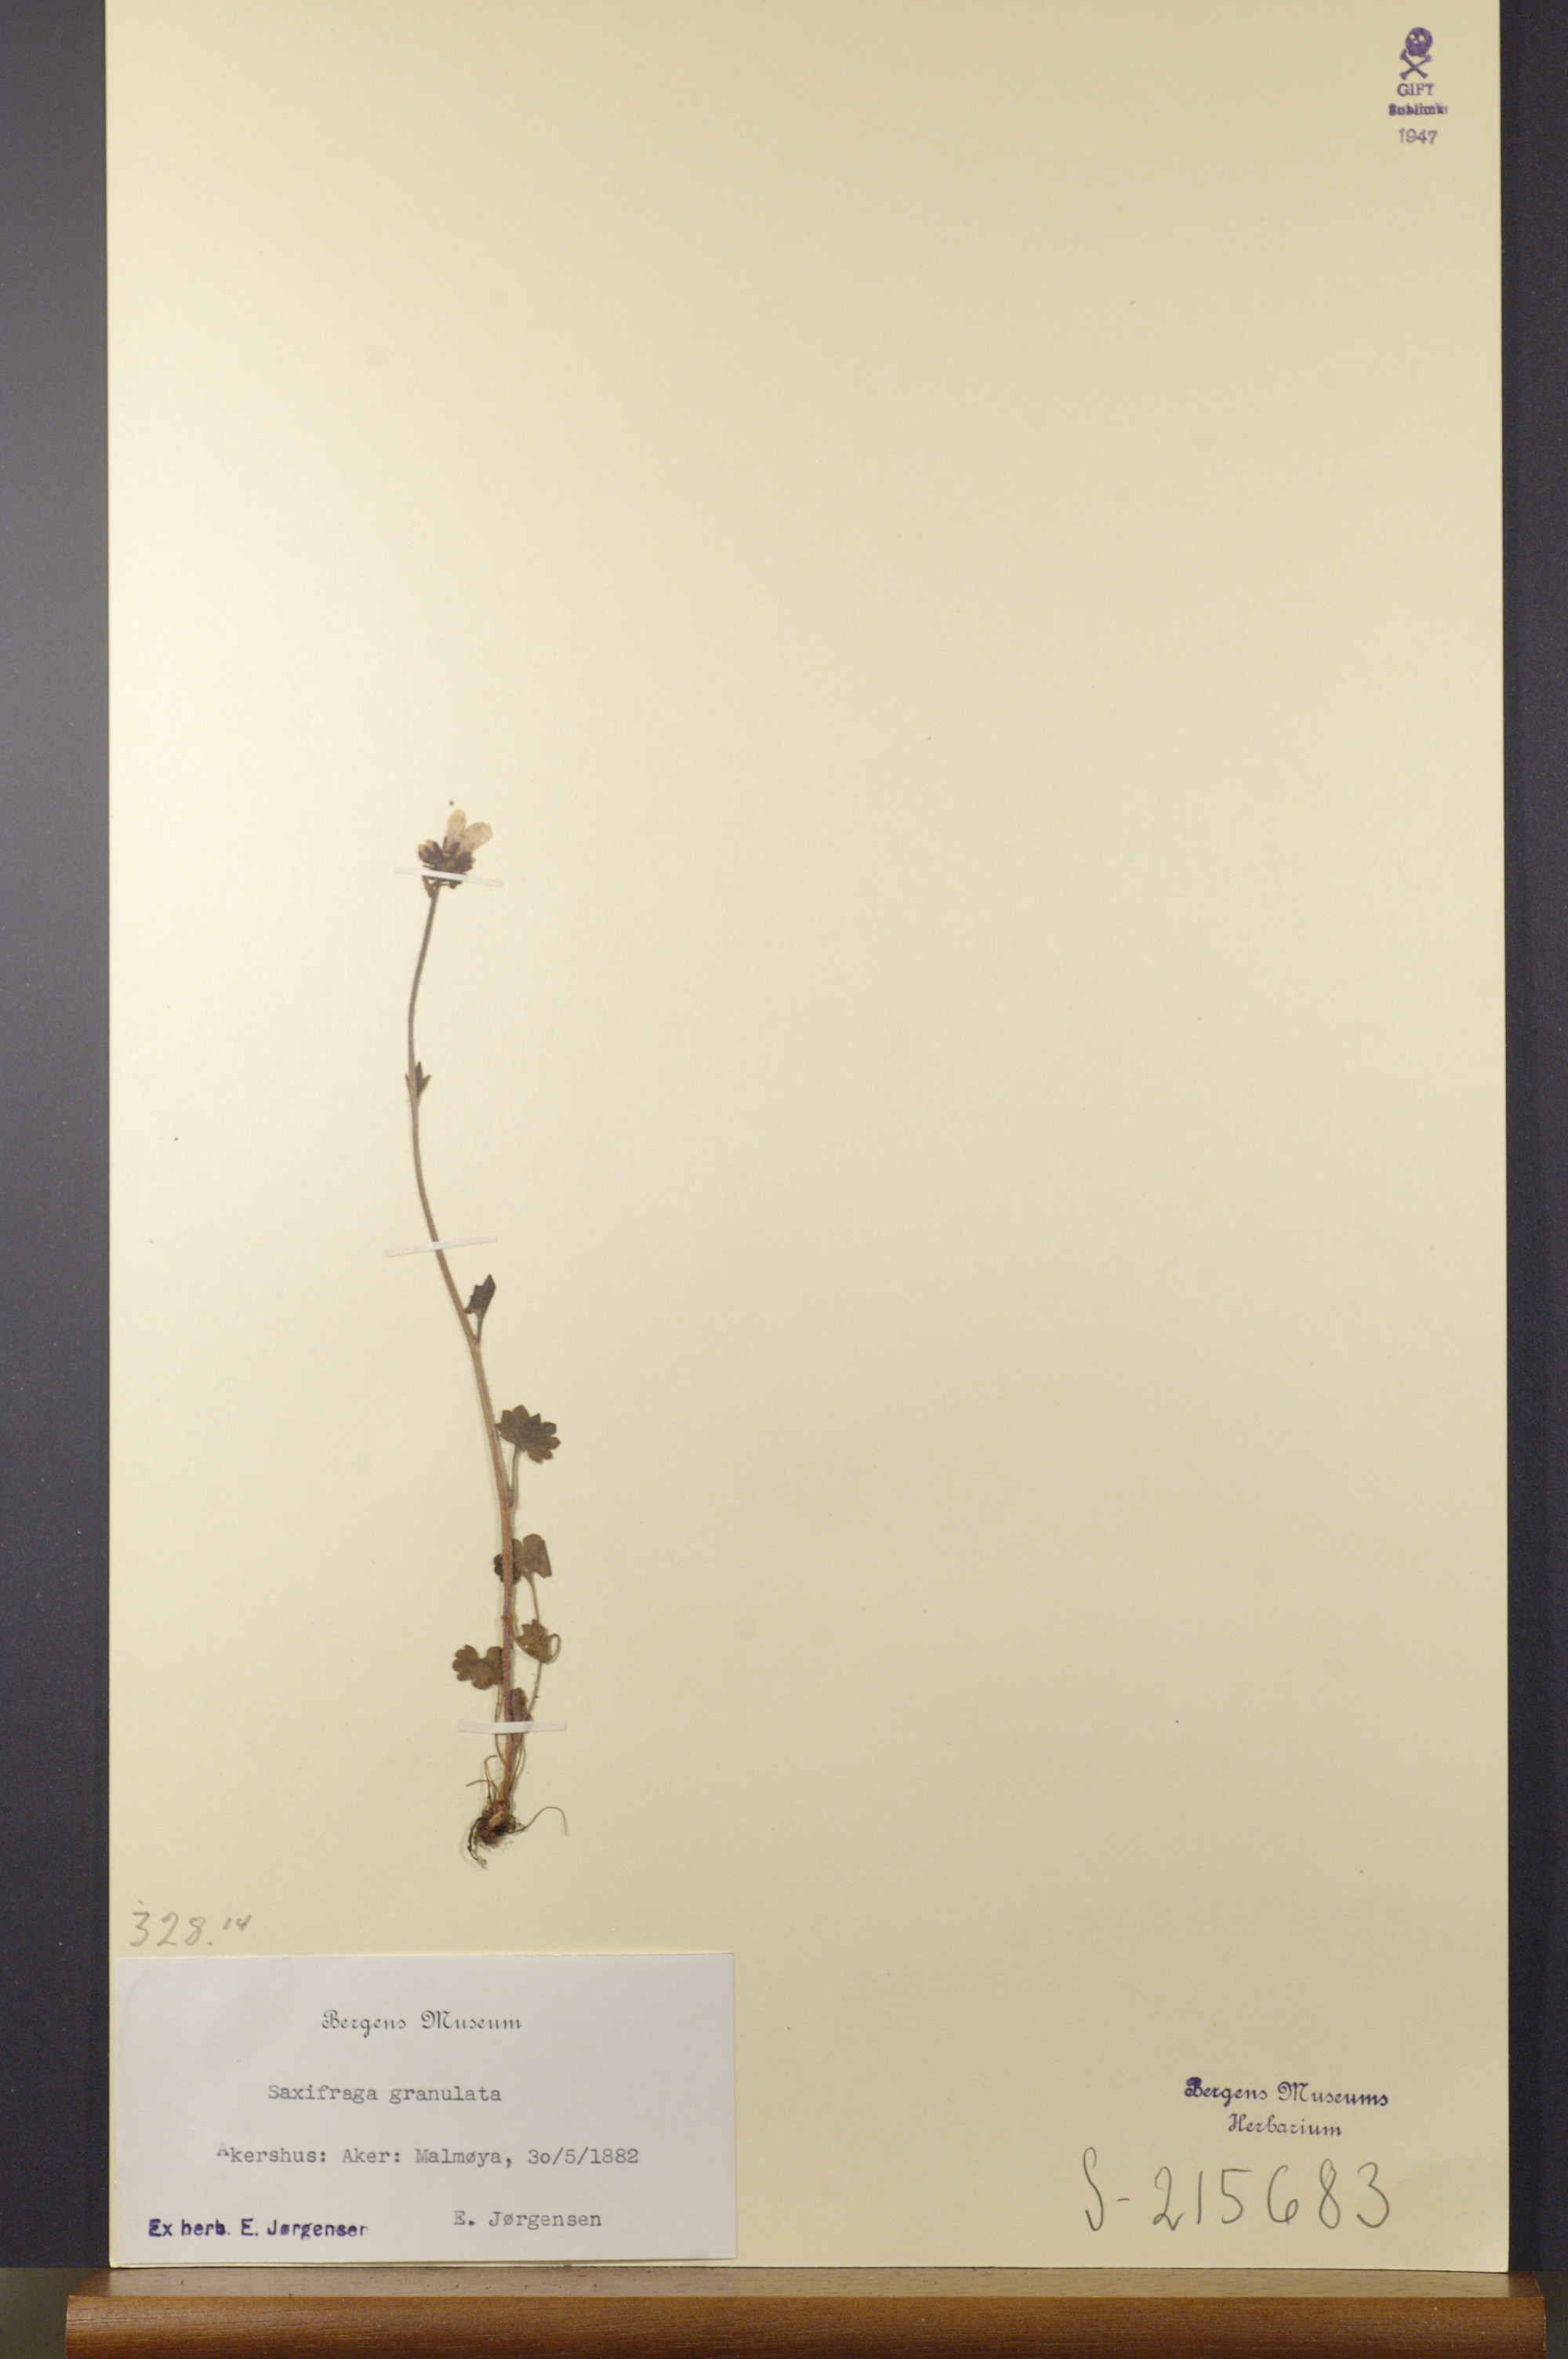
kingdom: Plantae
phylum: Tracheophyta
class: Magnoliopsida
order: Saxifragales
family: Saxifragaceae
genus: Saxifraga
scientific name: Saxifraga granulata
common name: Meadow saxifrage
